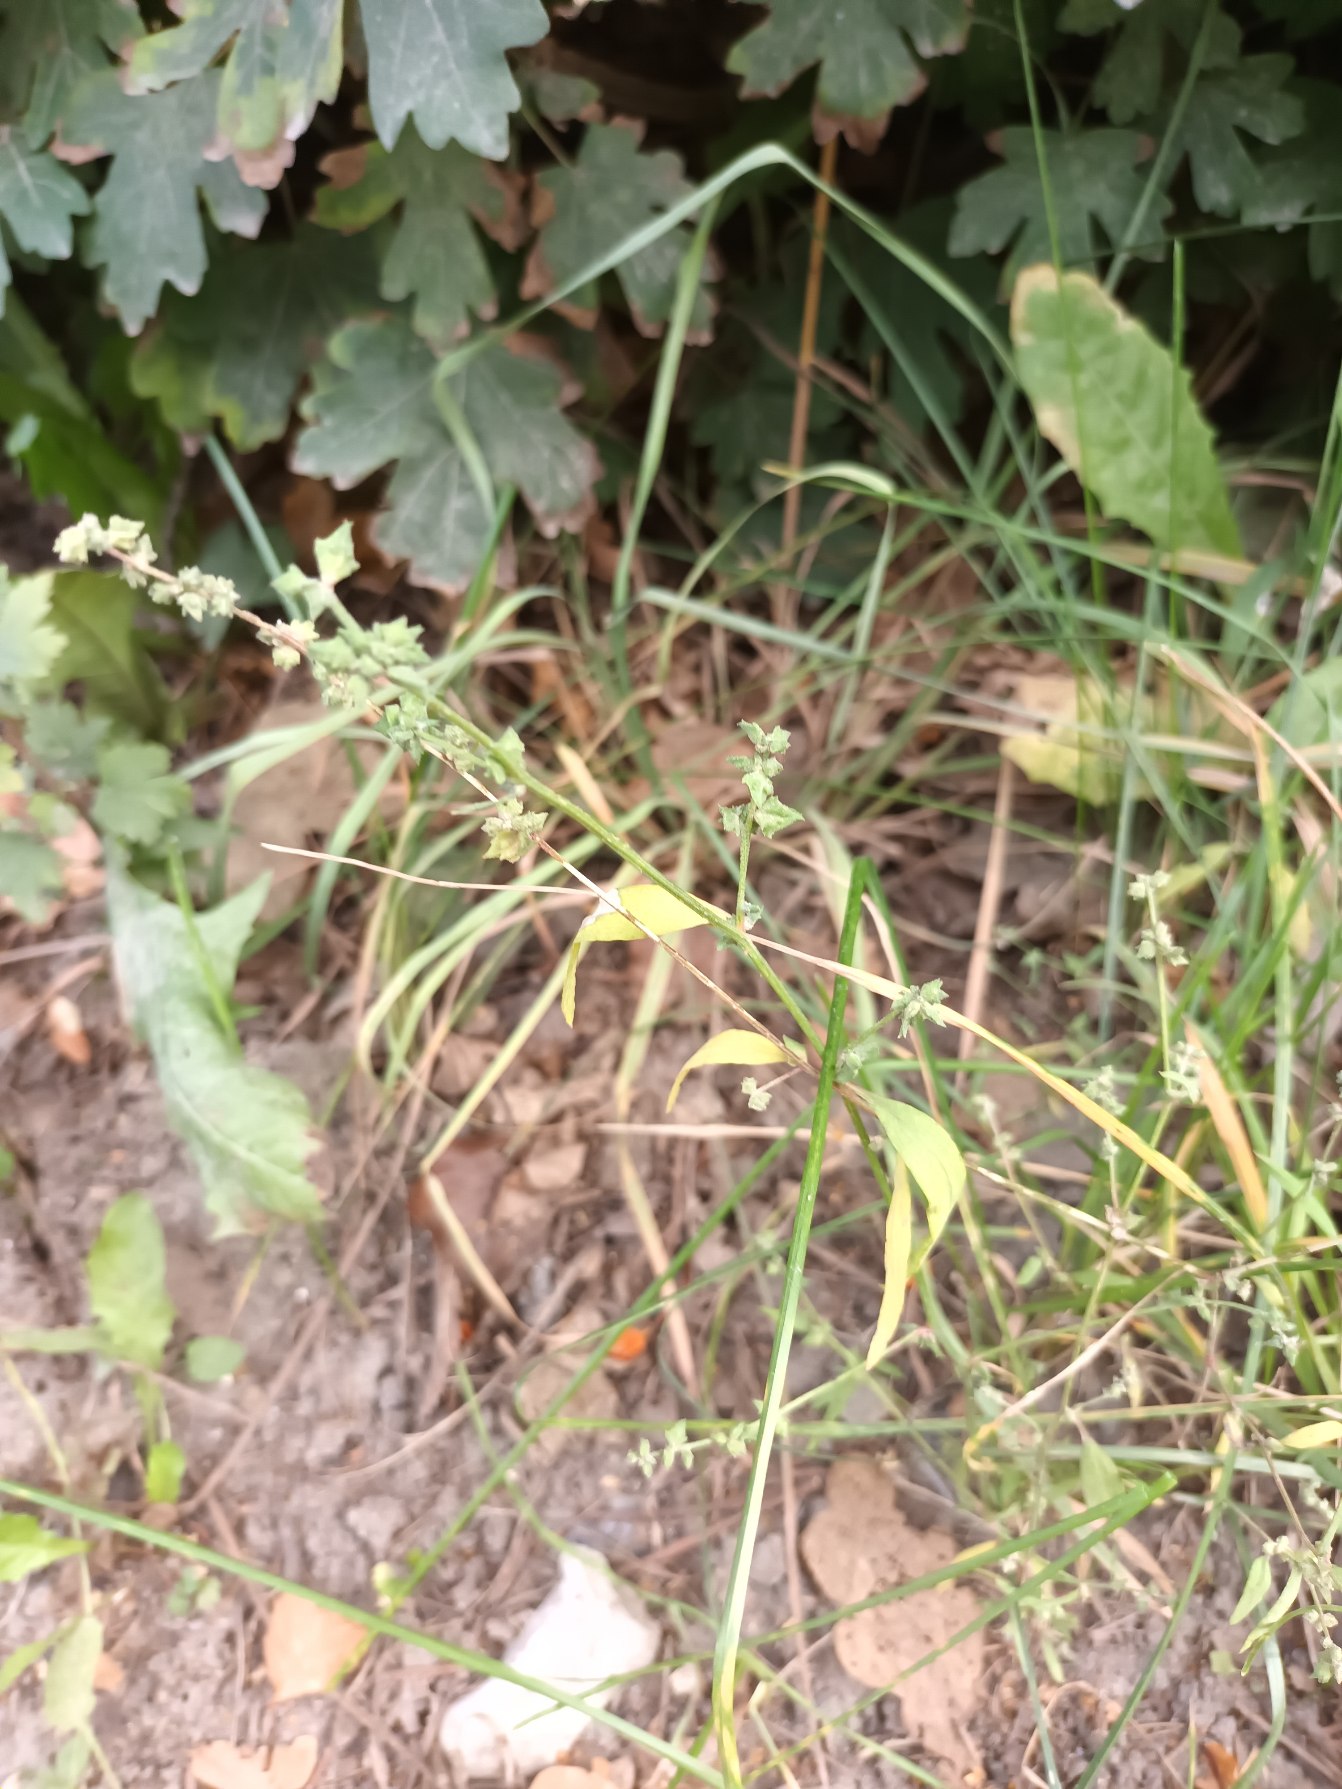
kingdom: Plantae
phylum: Tracheophyta
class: Magnoliopsida
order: Caryophyllales
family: Amaranthaceae
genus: Atriplex
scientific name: Atriplex patula
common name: Svine-mælde
